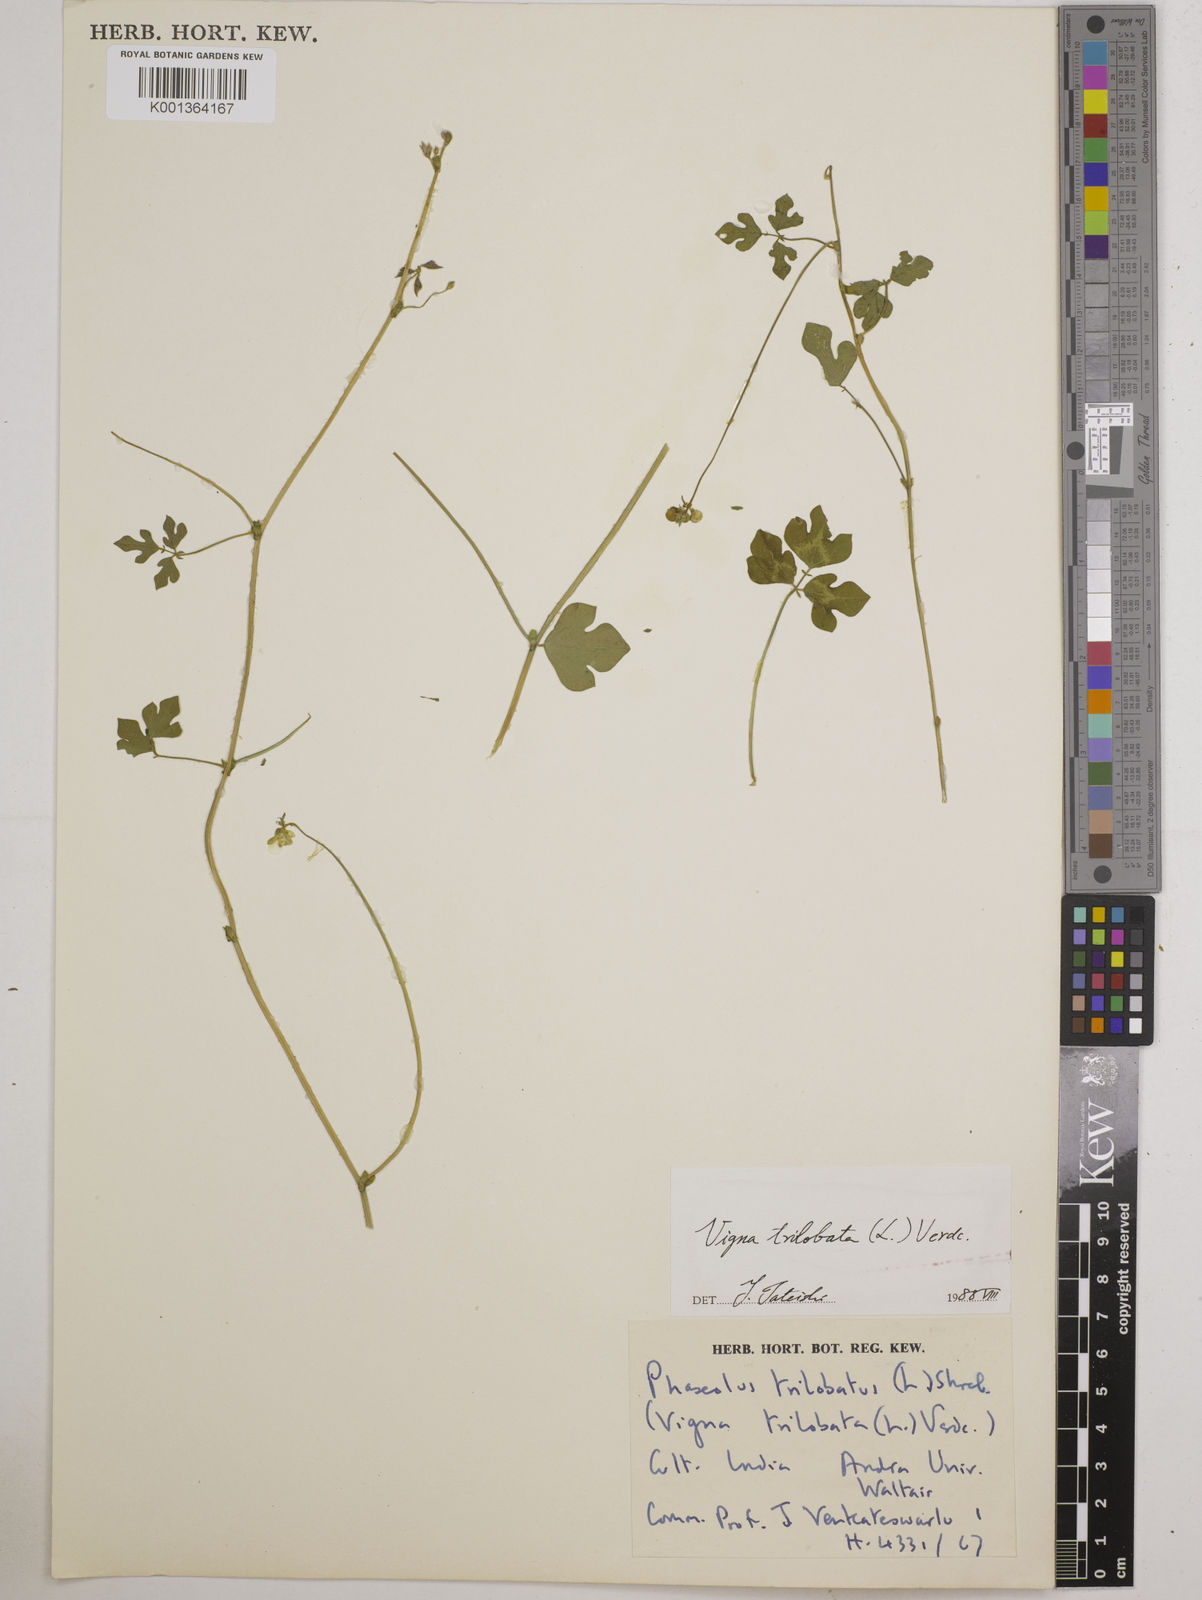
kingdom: Plantae
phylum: Tracheophyta
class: Magnoliopsida
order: Fabales
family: Fabaceae
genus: Vigna
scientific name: Vigna trilobata
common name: Jungli-bean
